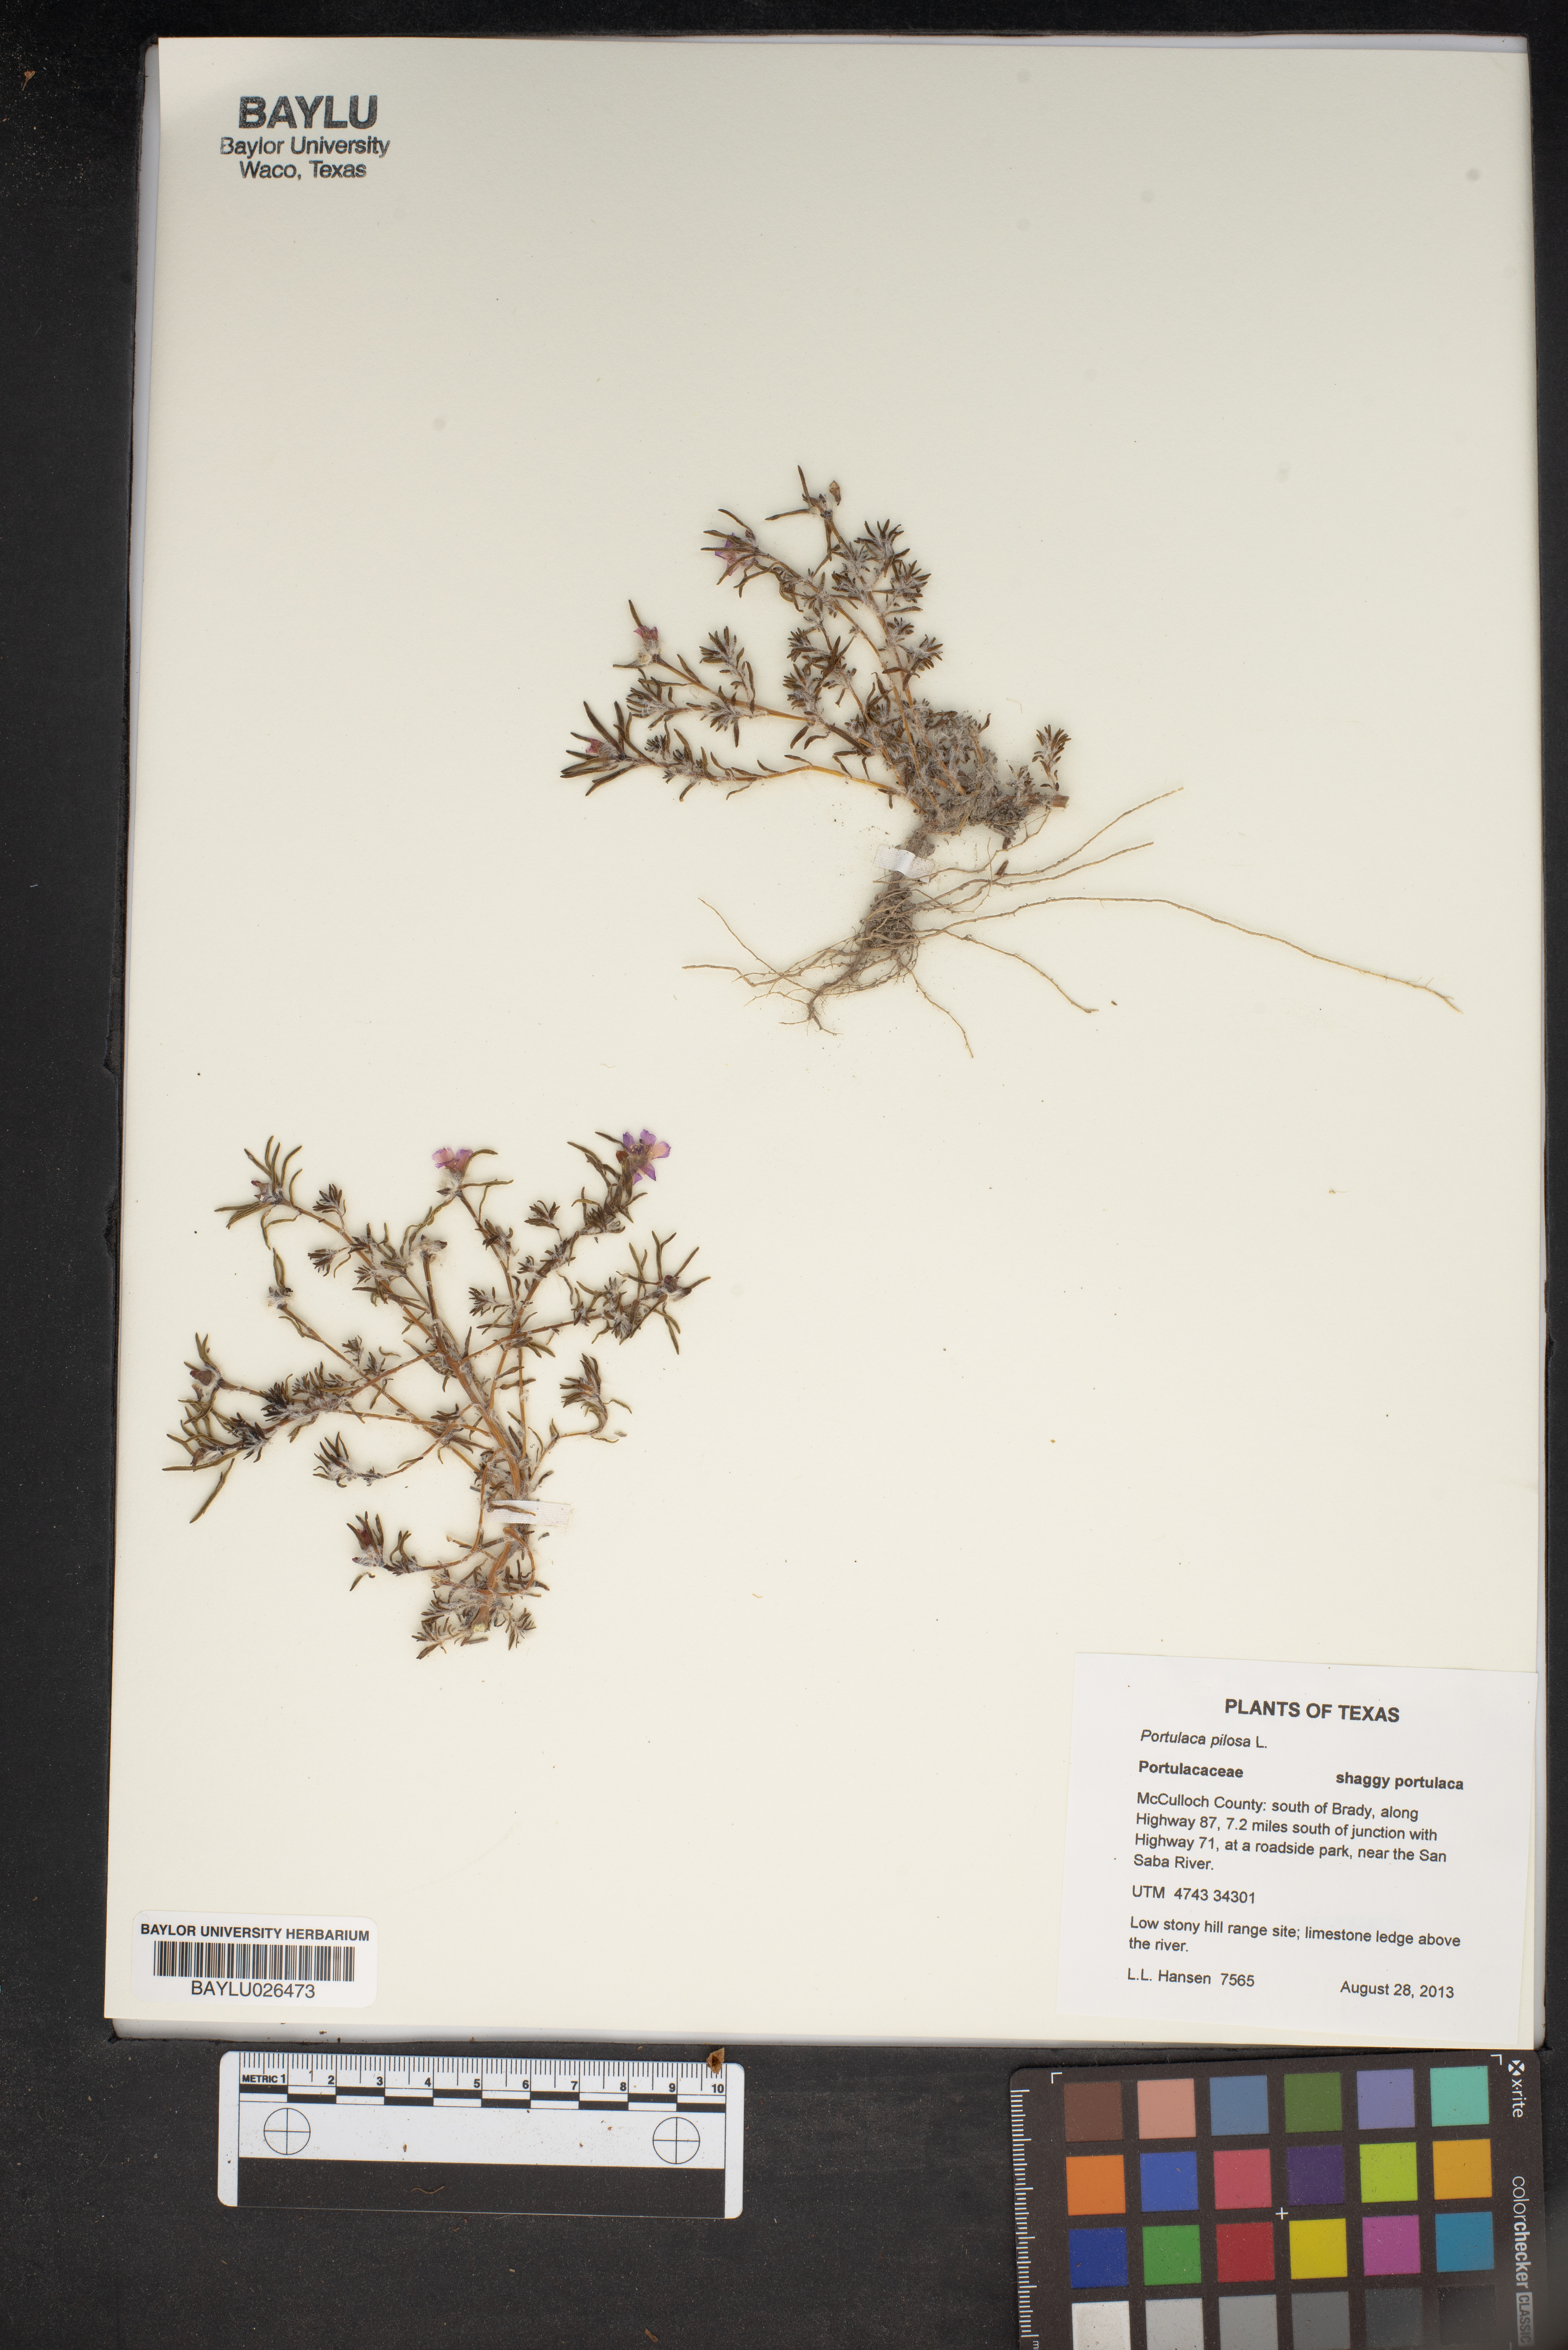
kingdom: Plantae
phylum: Tracheophyta
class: Magnoliopsida
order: Caryophyllales
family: Portulacaceae
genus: Portulaca
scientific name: Portulaca pilosa
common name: Kiss me quick
